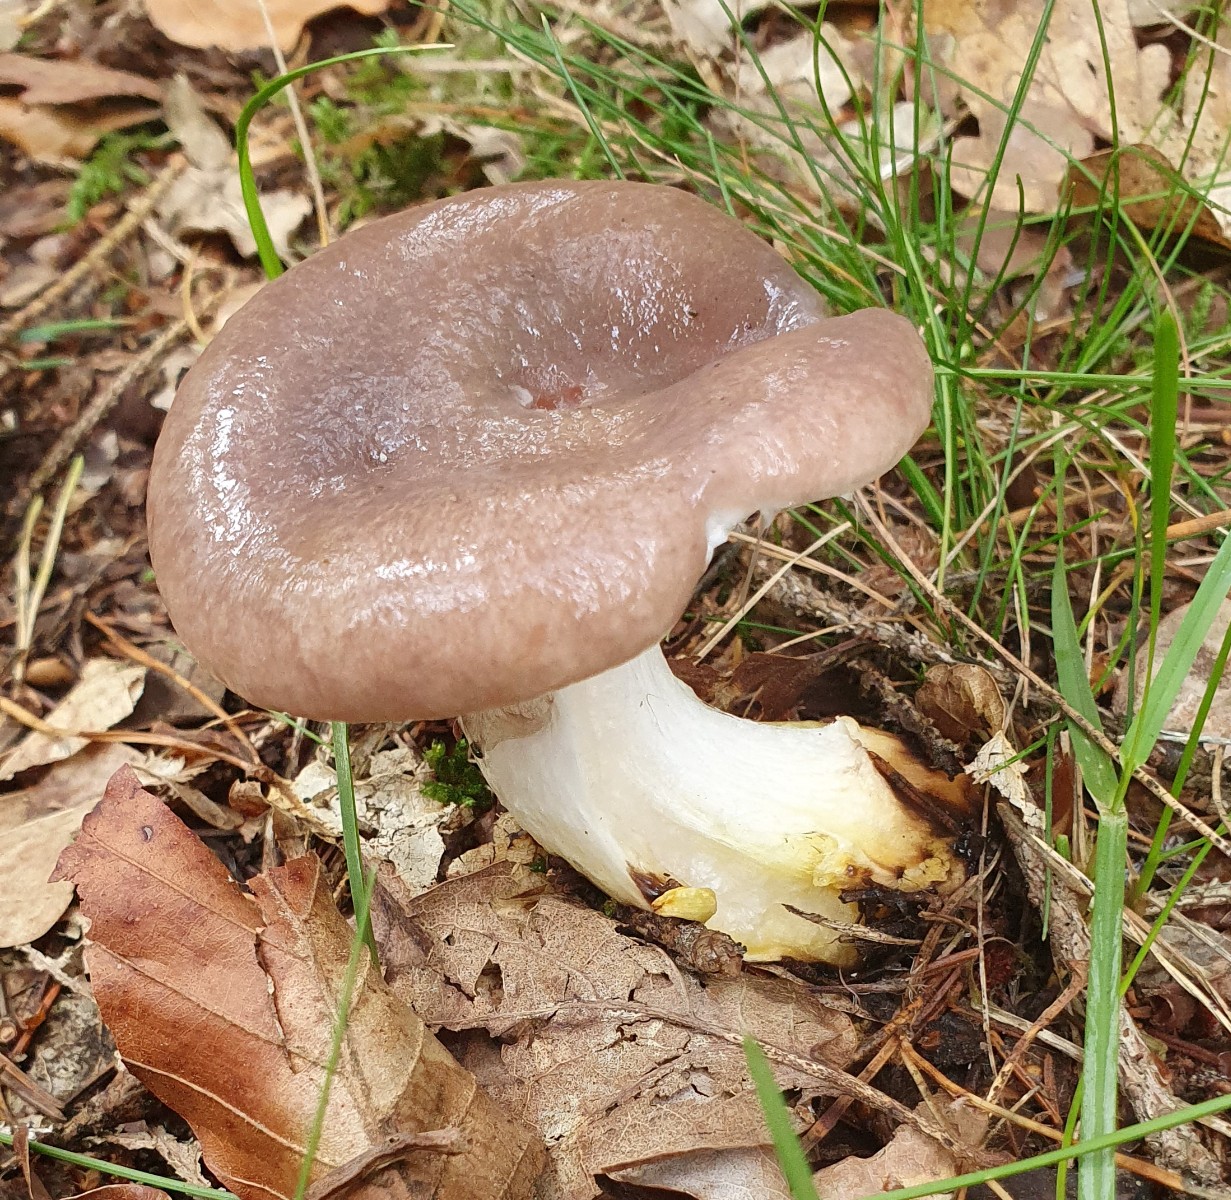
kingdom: Fungi
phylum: Basidiomycota
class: Agaricomycetes
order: Boletales
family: Gomphidiaceae
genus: Gomphidius
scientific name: Gomphidius glutinosus
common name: grå slimslør
